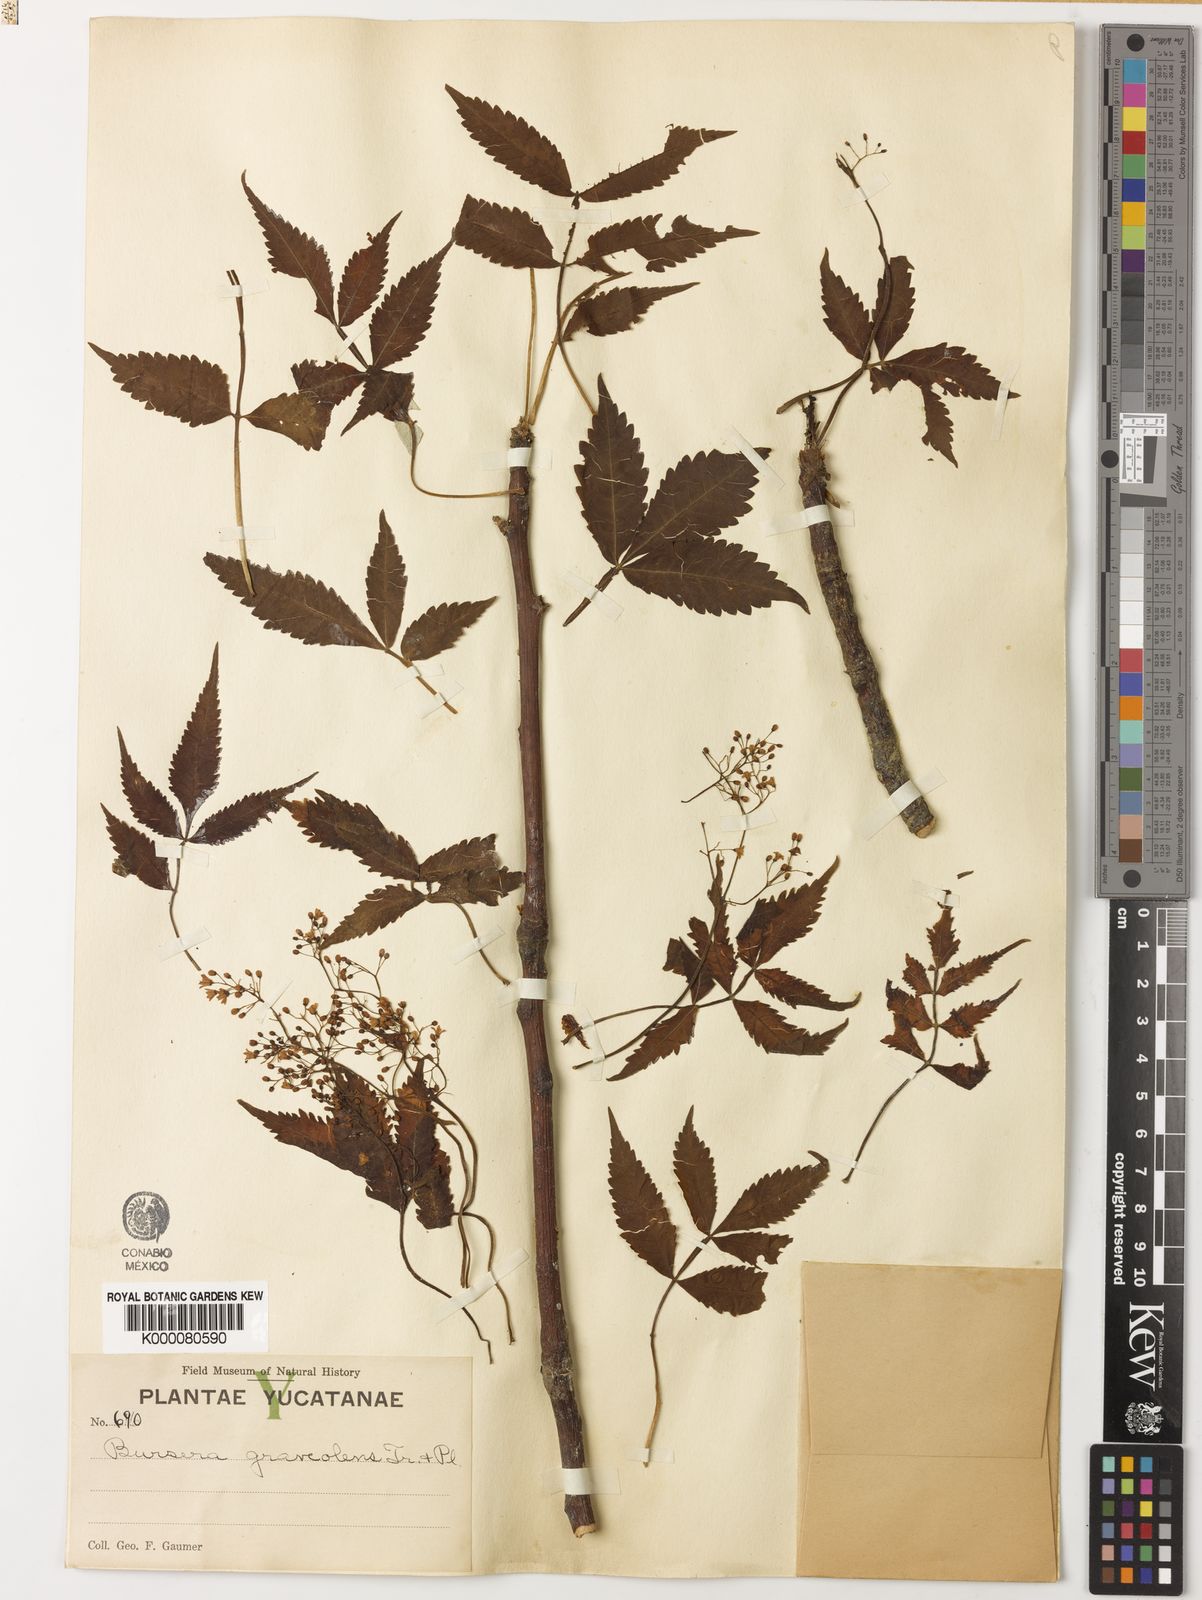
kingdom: Plantae
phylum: Tracheophyta
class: Magnoliopsida
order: Sapindales
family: Burseraceae
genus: Bursera
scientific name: Bursera graveolens
